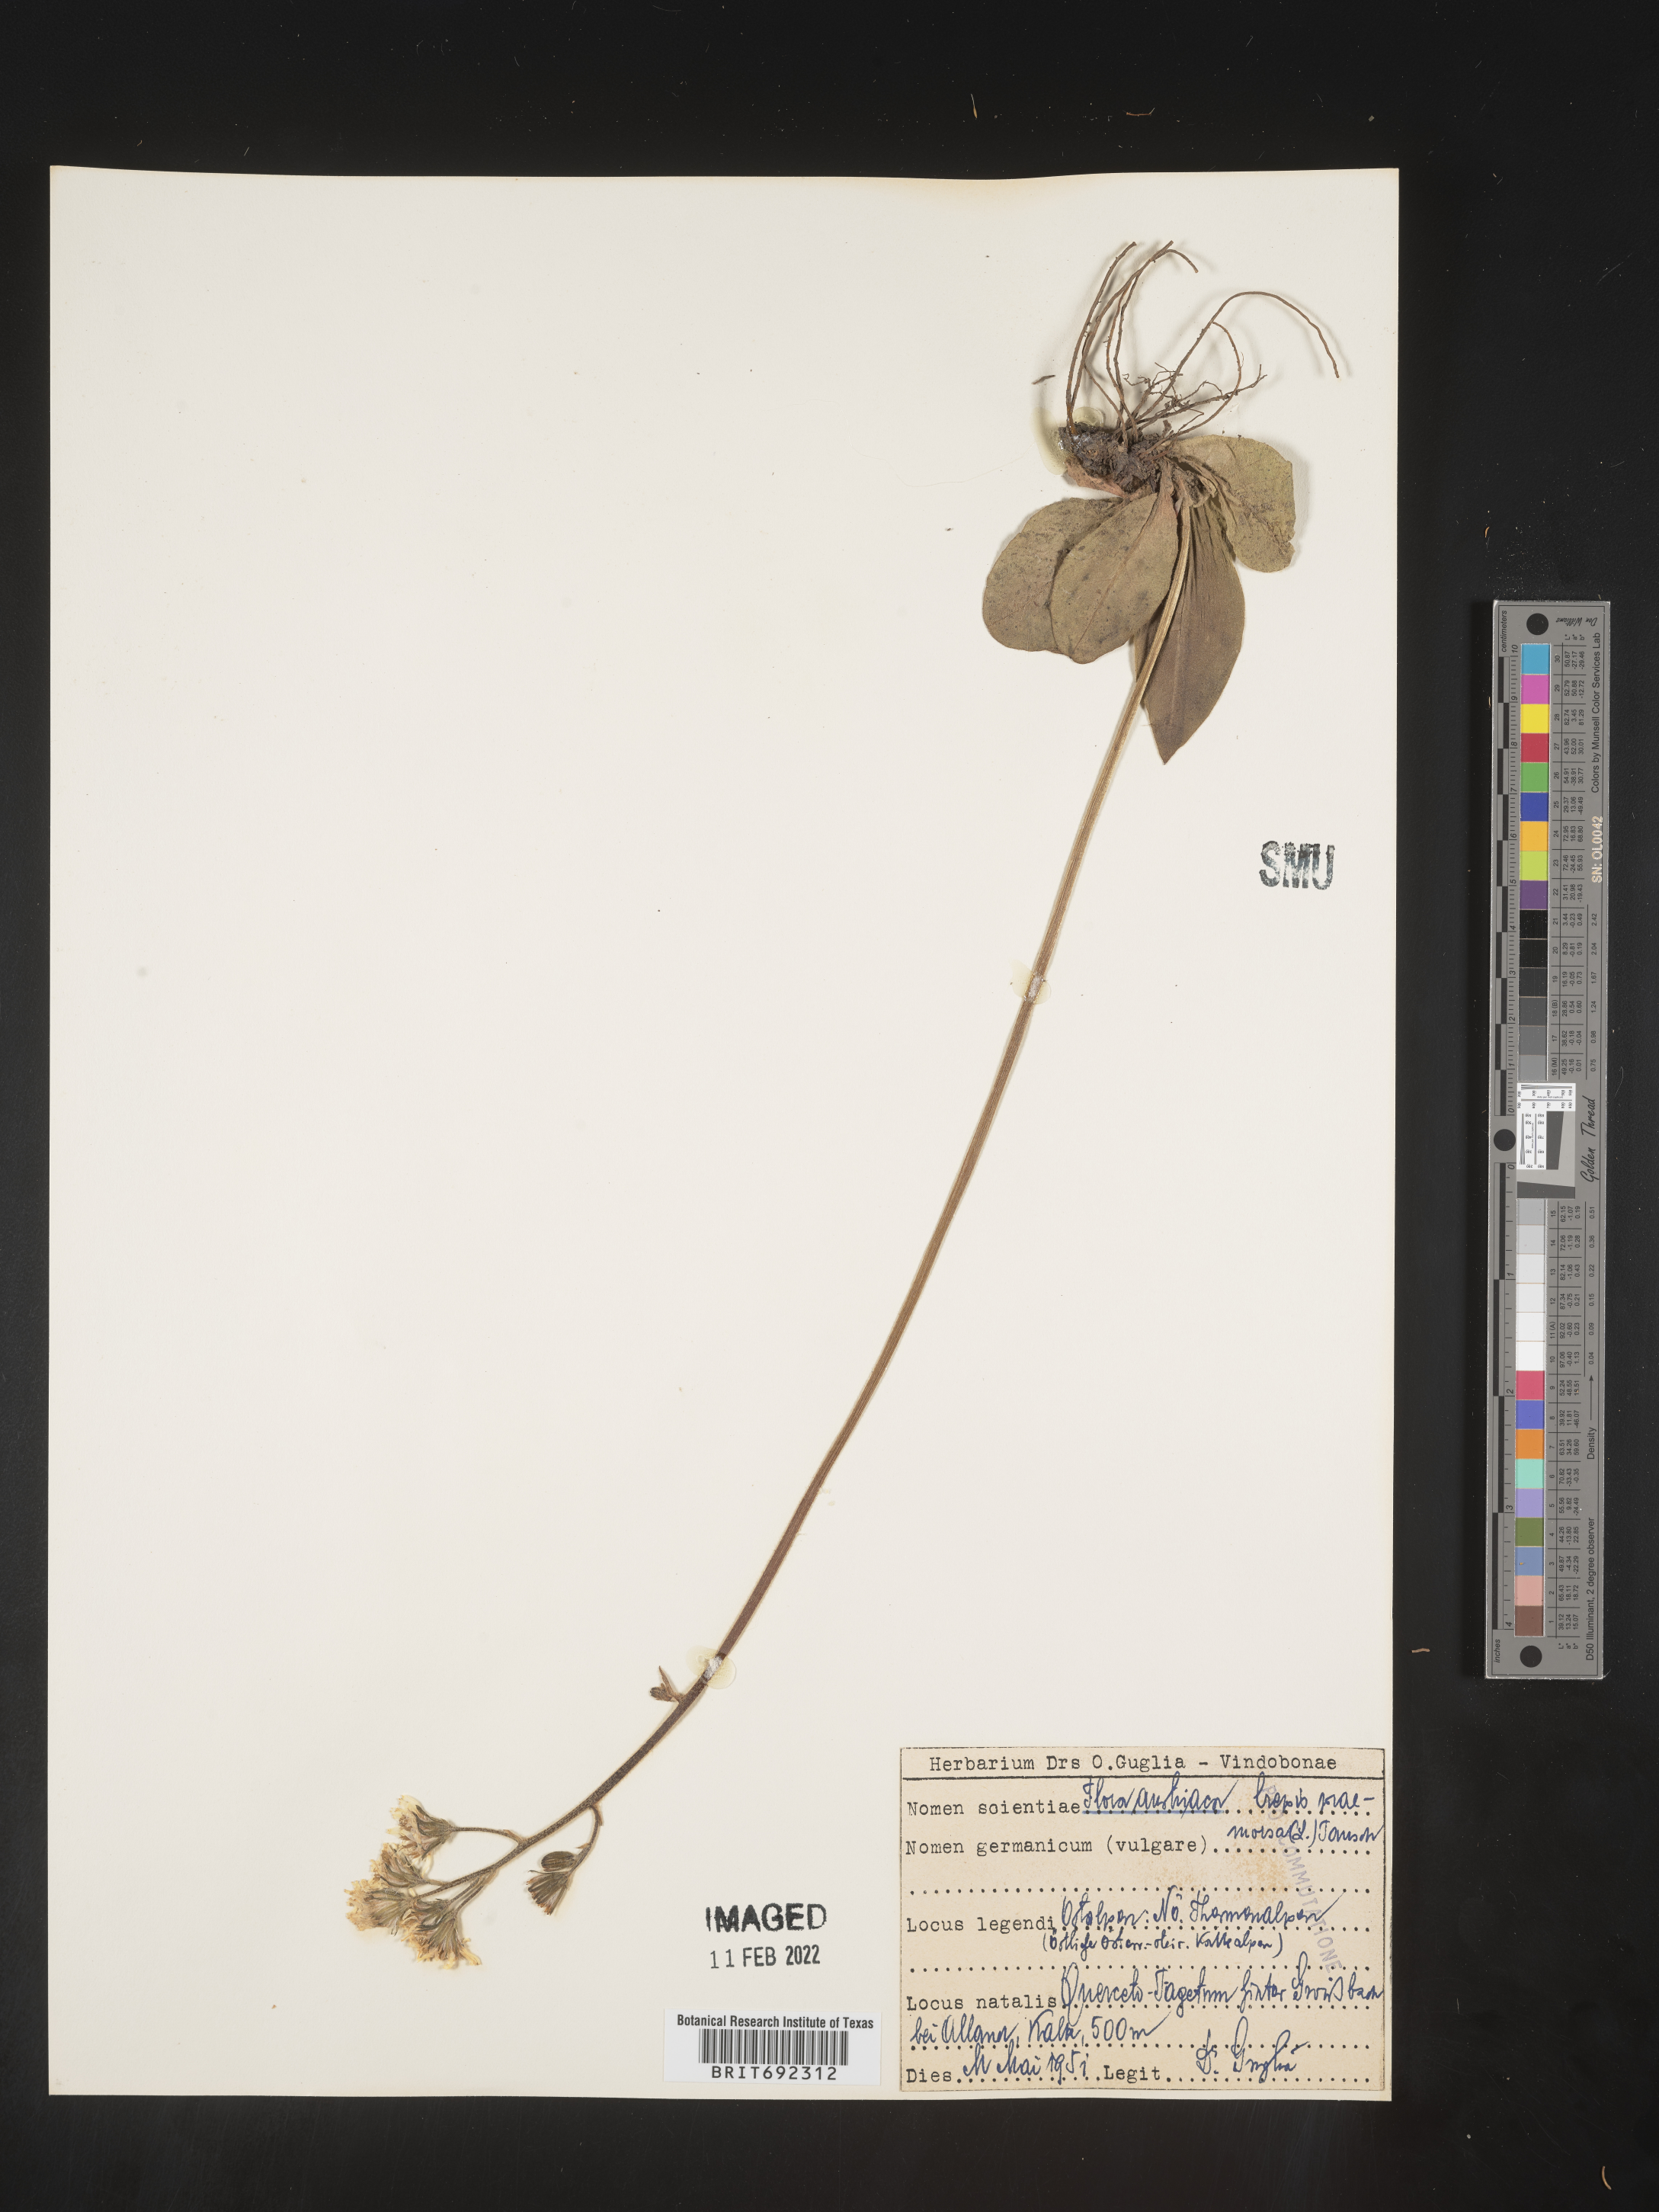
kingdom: Plantae
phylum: Tracheophyta
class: Magnoliopsida
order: Asterales
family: Asteraceae
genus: Crepis
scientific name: Crepis
